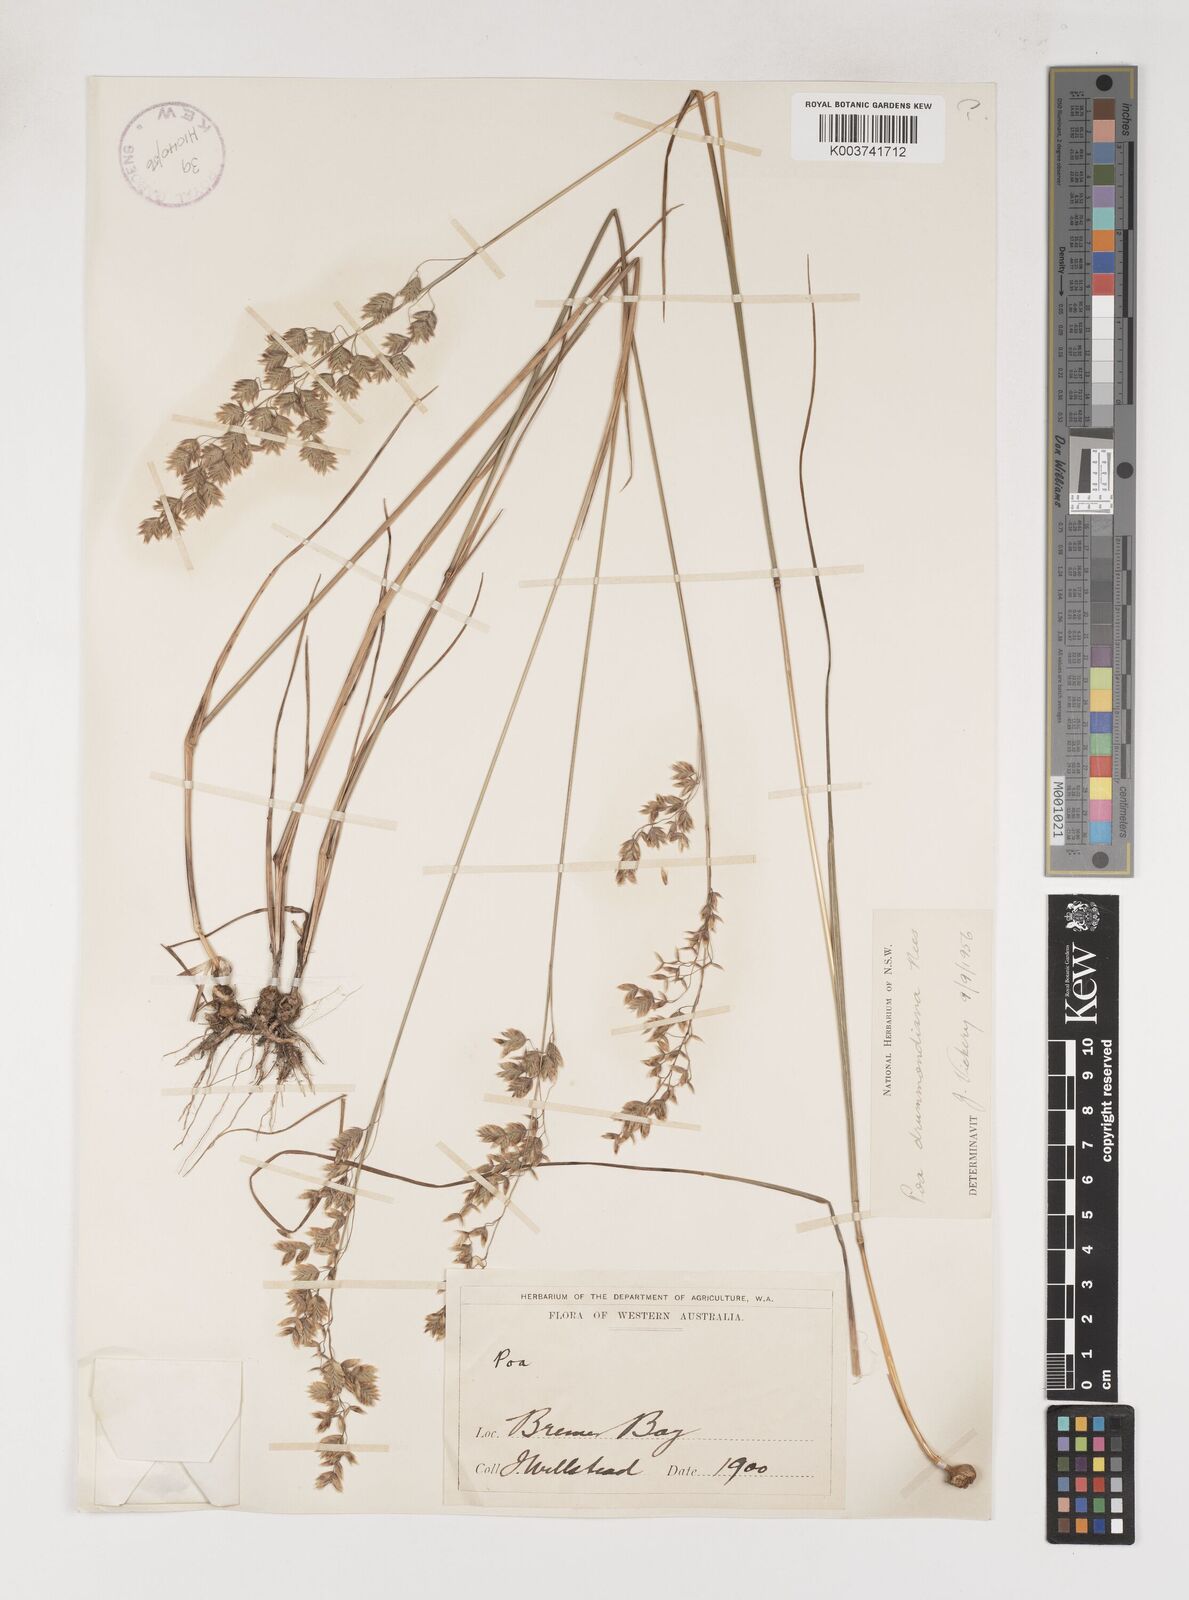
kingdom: Plantae
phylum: Tracheophyta
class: Liliopsida
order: Poales
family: Poaceae
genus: Poa
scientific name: Poa drummondiana
